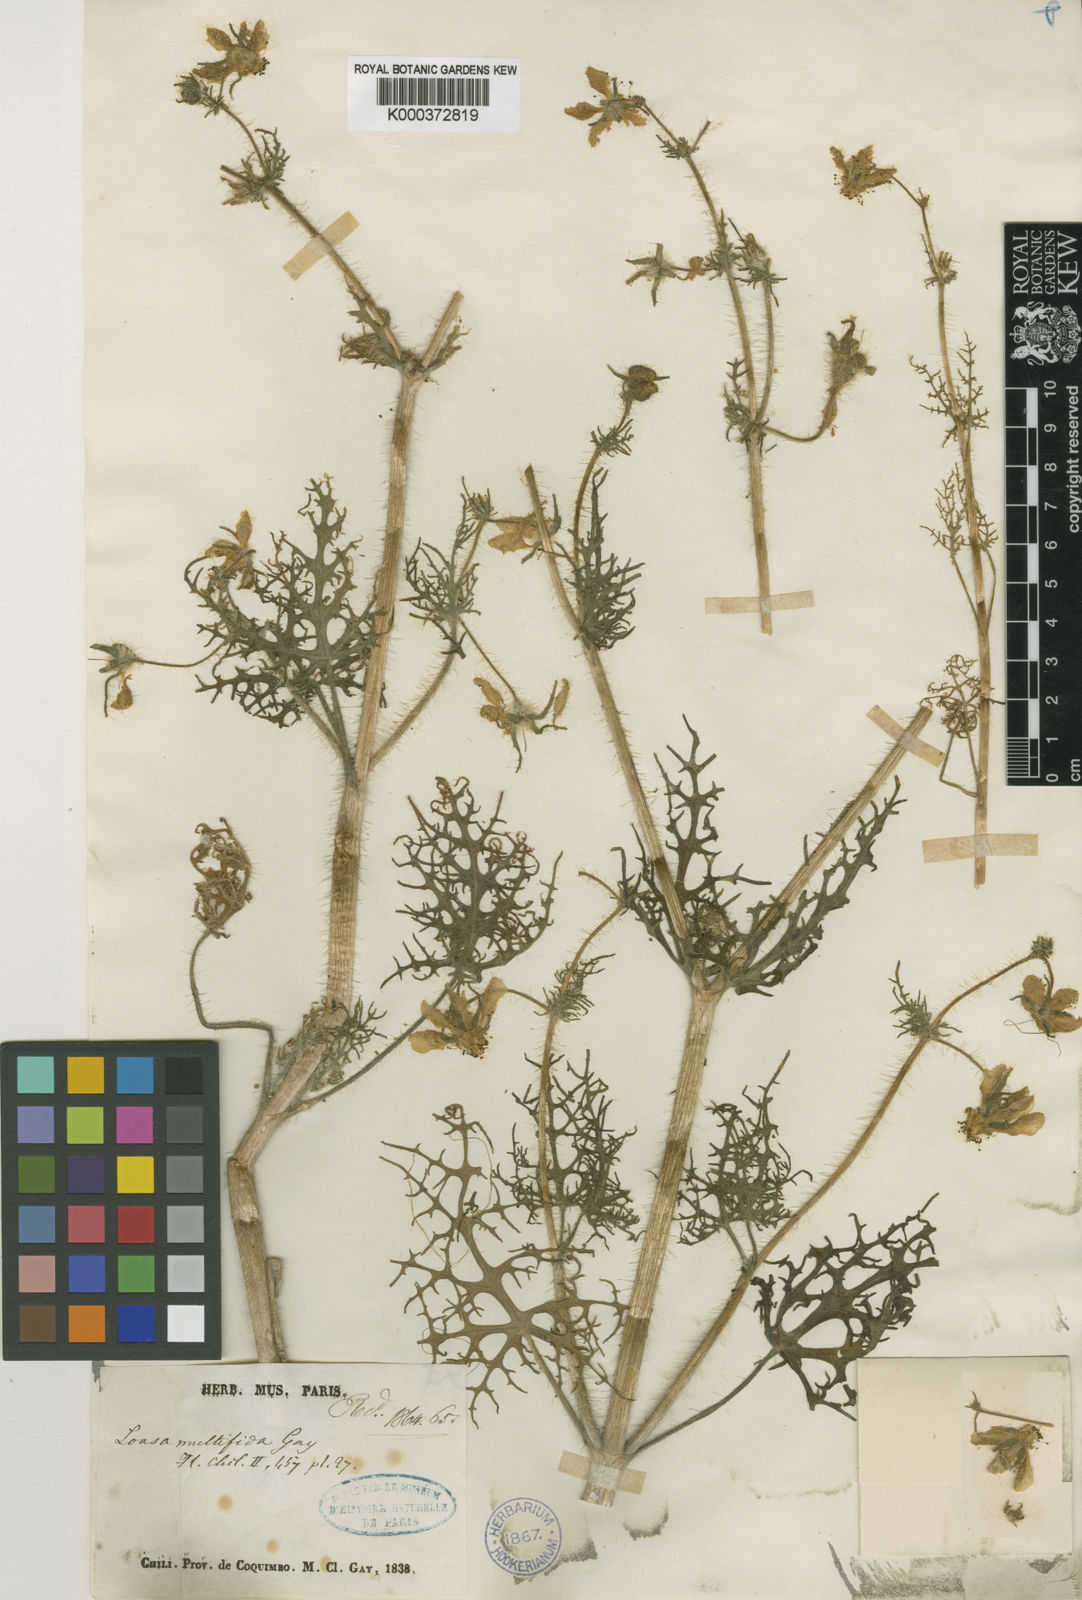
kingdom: Plantae
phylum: Tracheophyta
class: Magnoliopsida
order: Cornales
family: Loasaceae
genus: Loasa
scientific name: Loasa multifida
